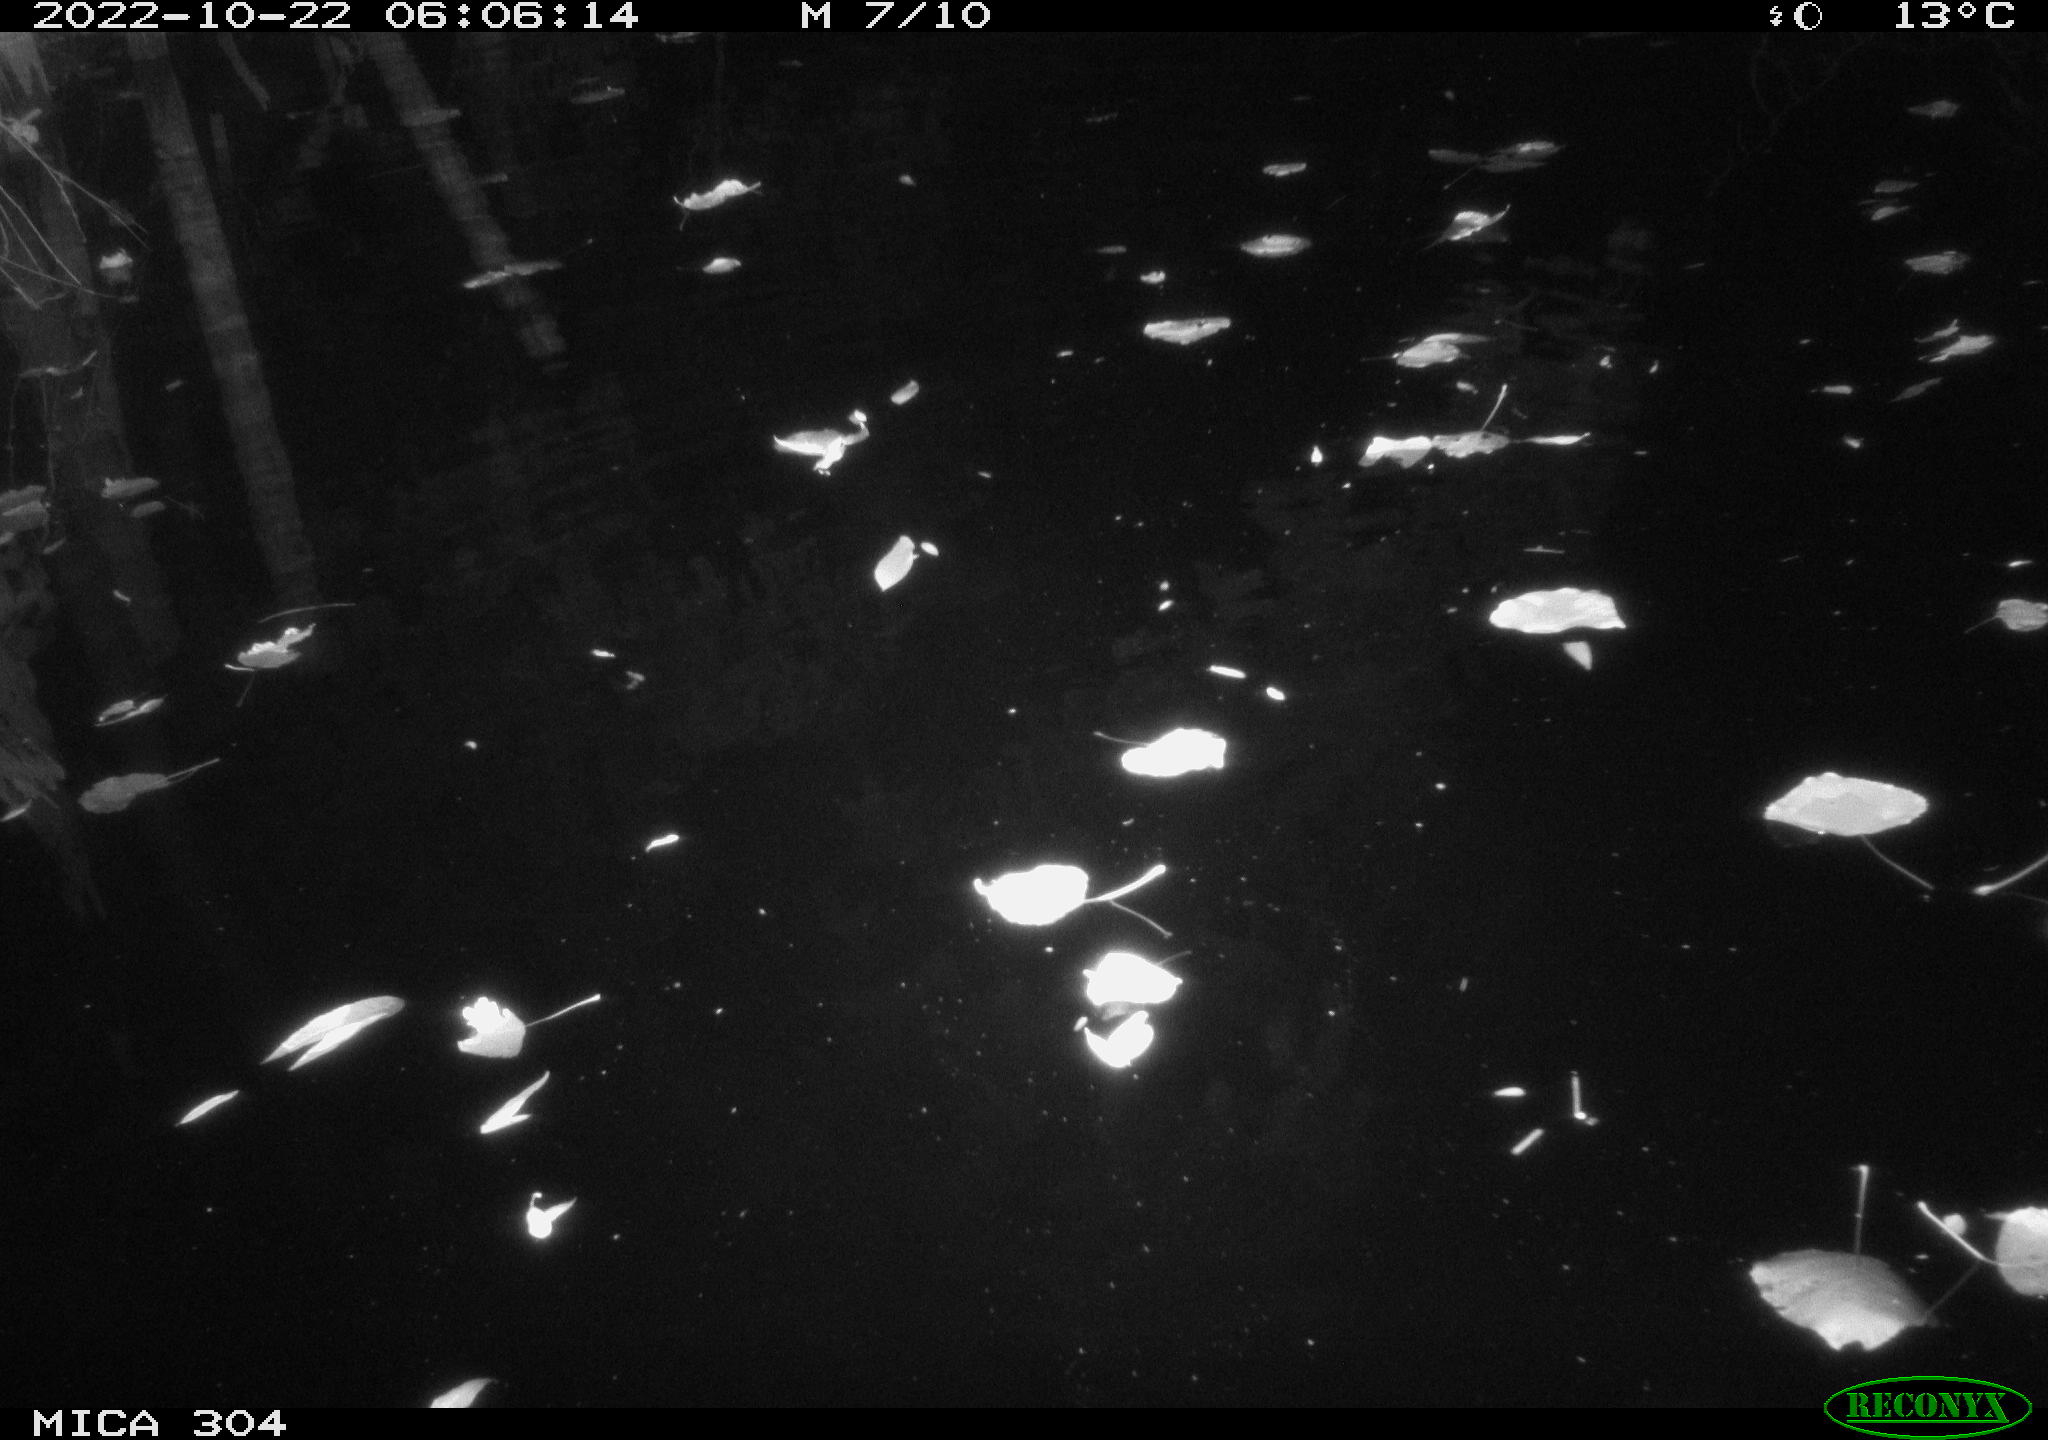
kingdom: Animalia
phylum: Chordata
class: Mammalia
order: Rodentia
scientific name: Rodentia
